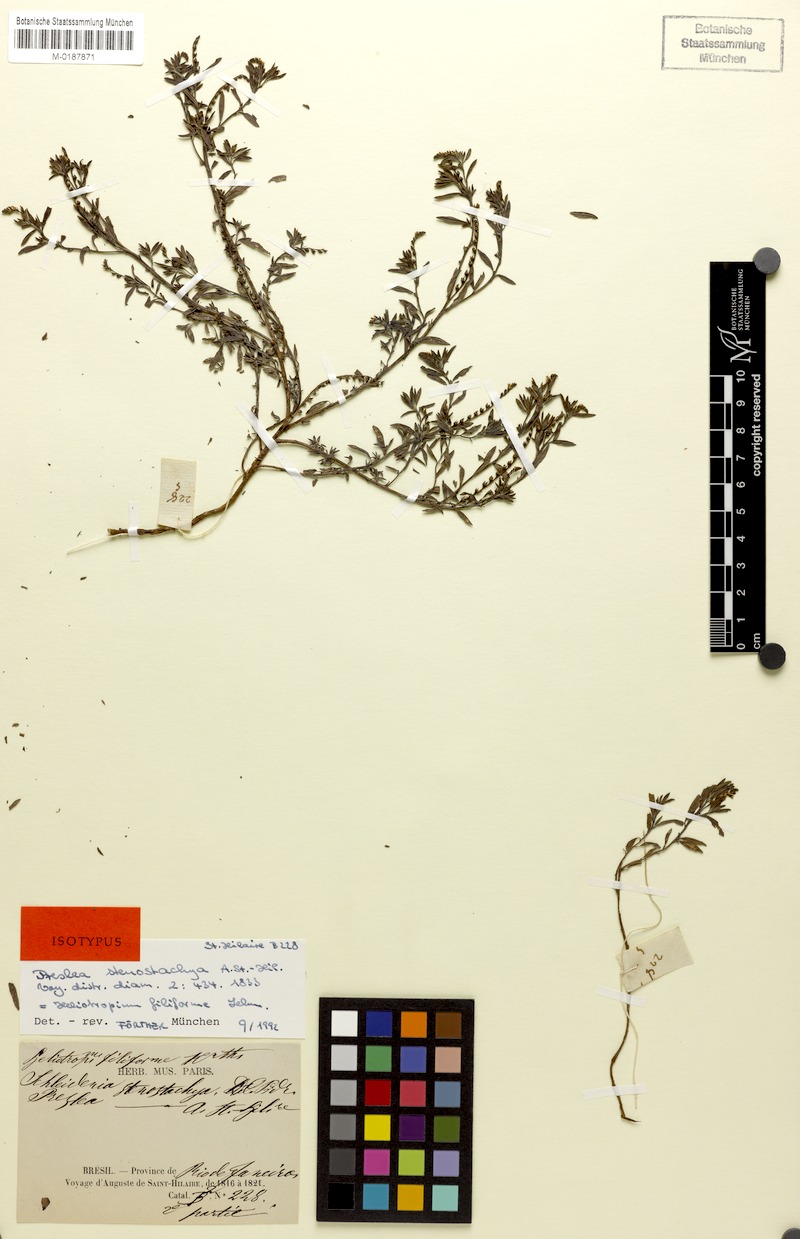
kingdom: Plantae
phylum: Tracheophyta
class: Magnoliopsida
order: Boraginales
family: Heliotropiaceae
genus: Euploca
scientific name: Euploca filiformis
